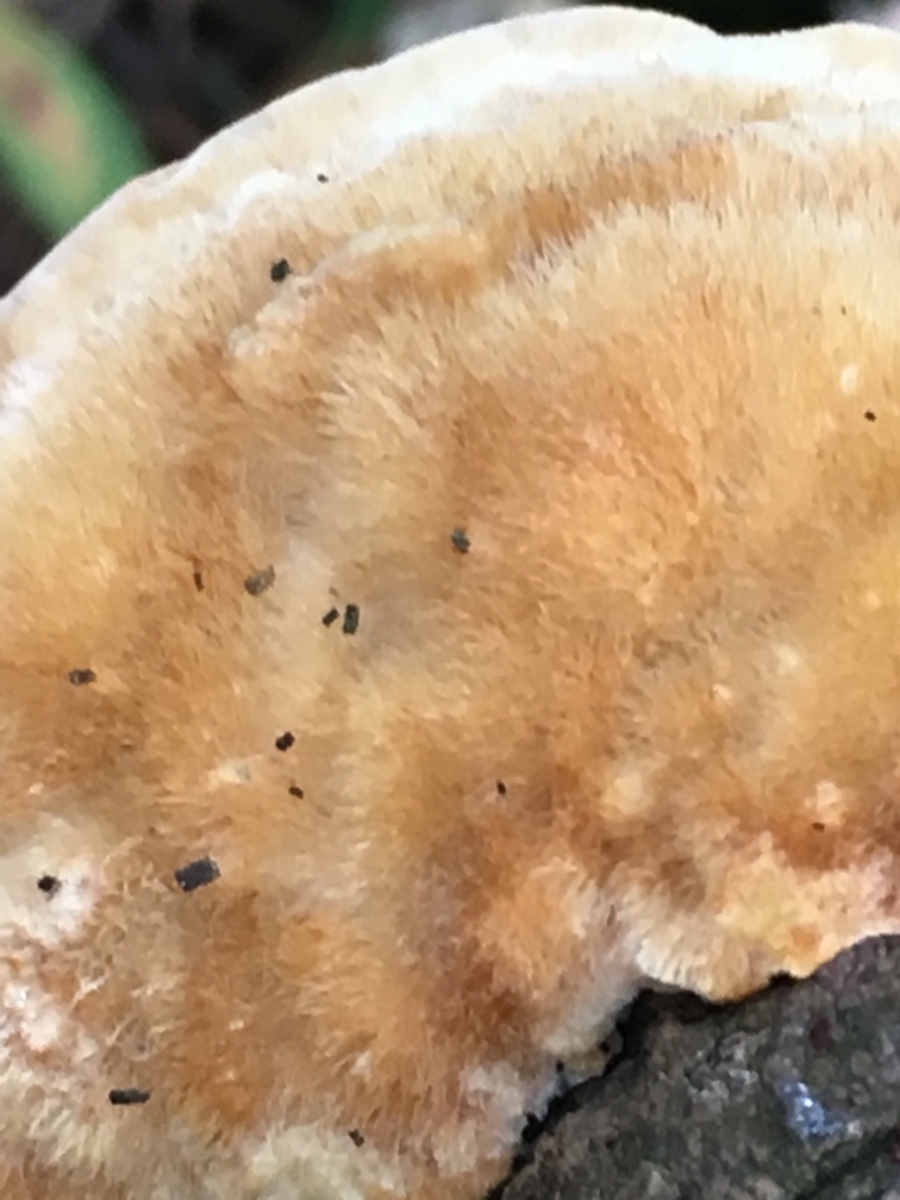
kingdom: Fungi
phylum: Basidiomycota
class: Agaricomycetes
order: Hymenochaetales
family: Hymenochaetaceae
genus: Inocutis
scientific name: Inocutis rheades
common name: ræve-spejlporesvamp
